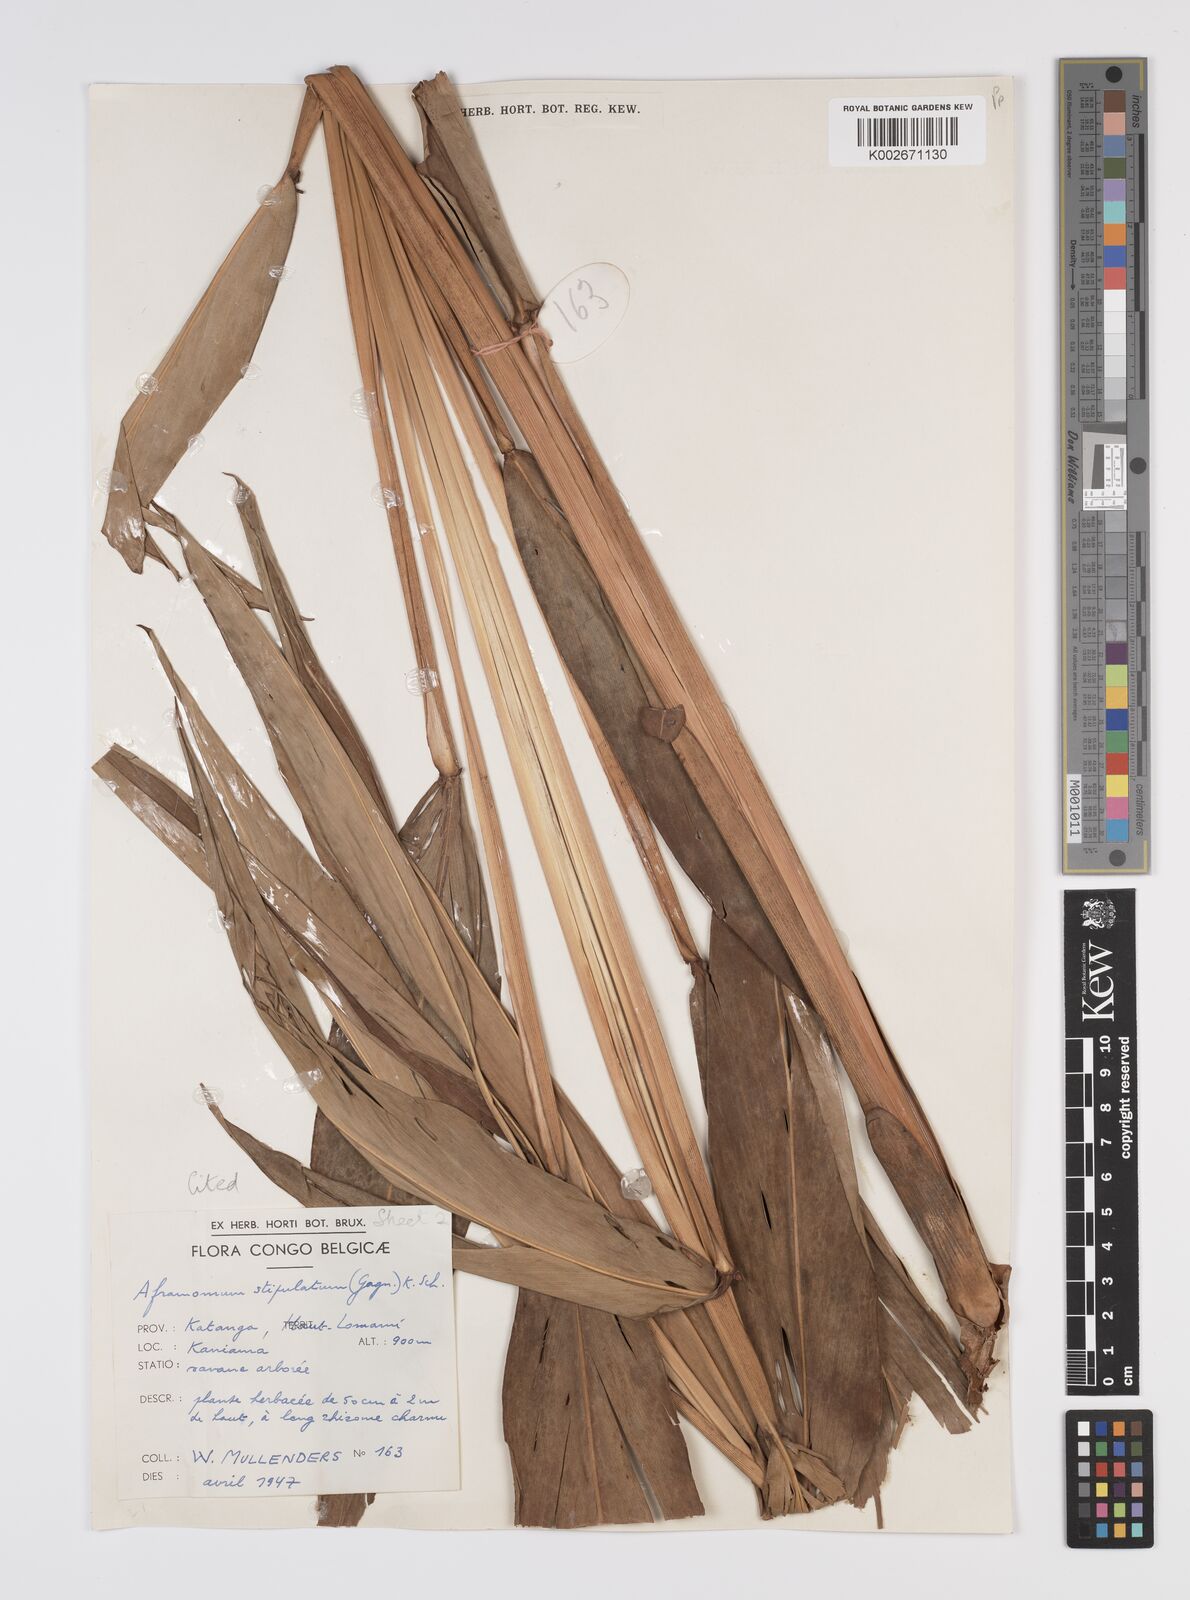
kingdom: Plantae
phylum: Tracheophyta
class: Liliopsida
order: Zingiberales
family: Zingiberaceae
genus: Aframomum
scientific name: Aframomum alboviolaceum
